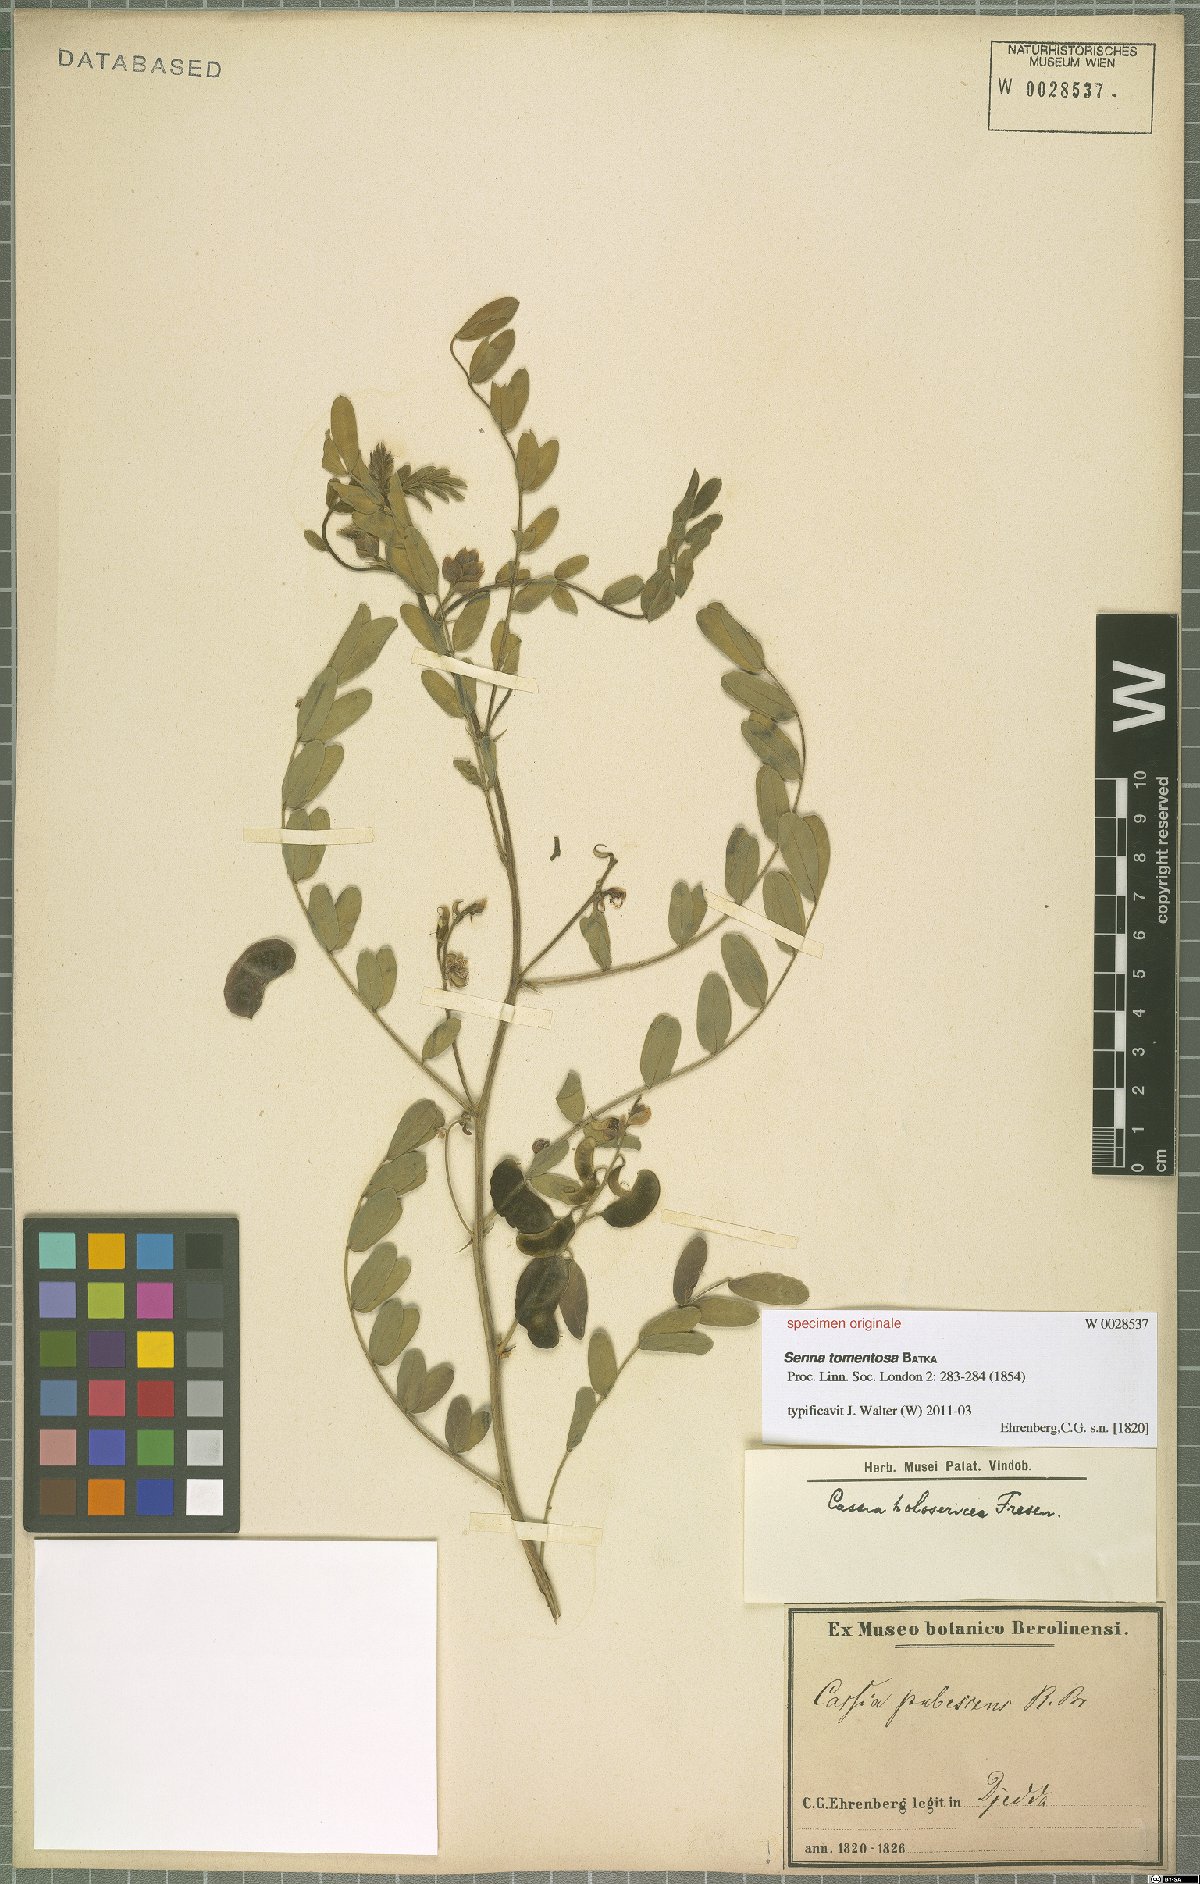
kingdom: Plantae
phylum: Tracheophyta
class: Magnoliopsida
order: Fabales
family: Fabaceae
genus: Senna
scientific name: Senna holosericea
